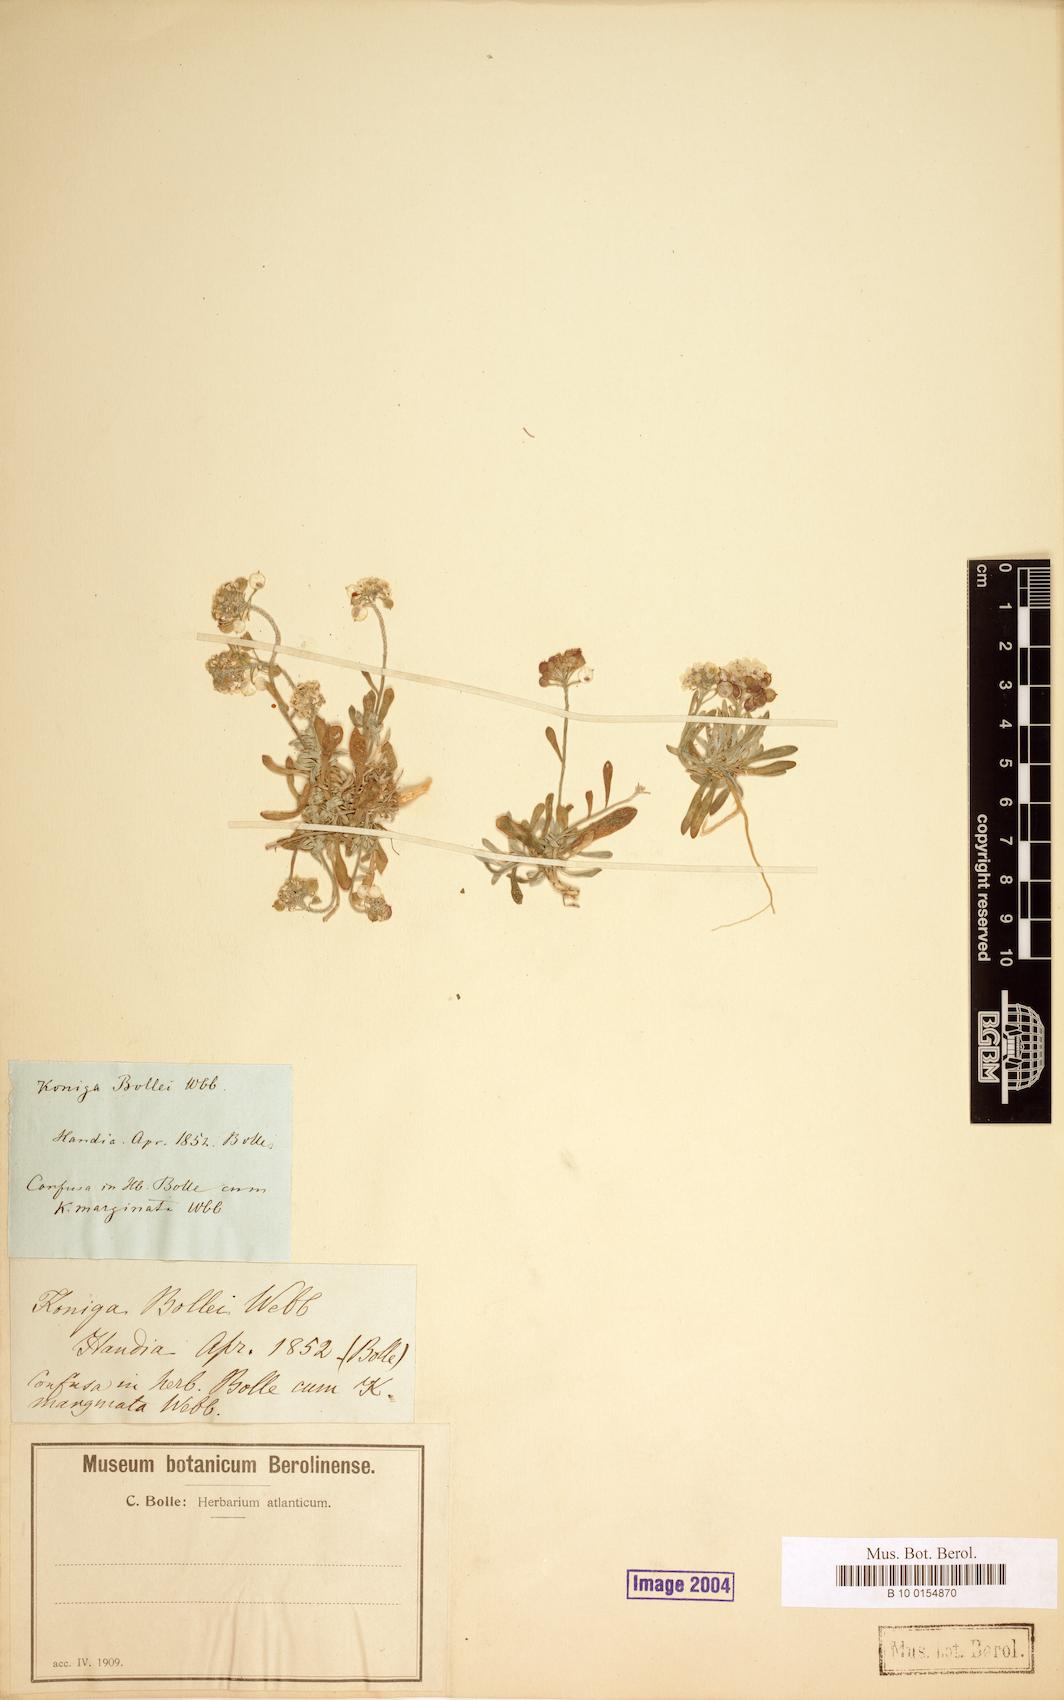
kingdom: Plantae
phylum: Tracheophyta
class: Magnoliopsida
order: Brassicales
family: Brassicaceae
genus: Lobularia
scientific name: Lobularia
